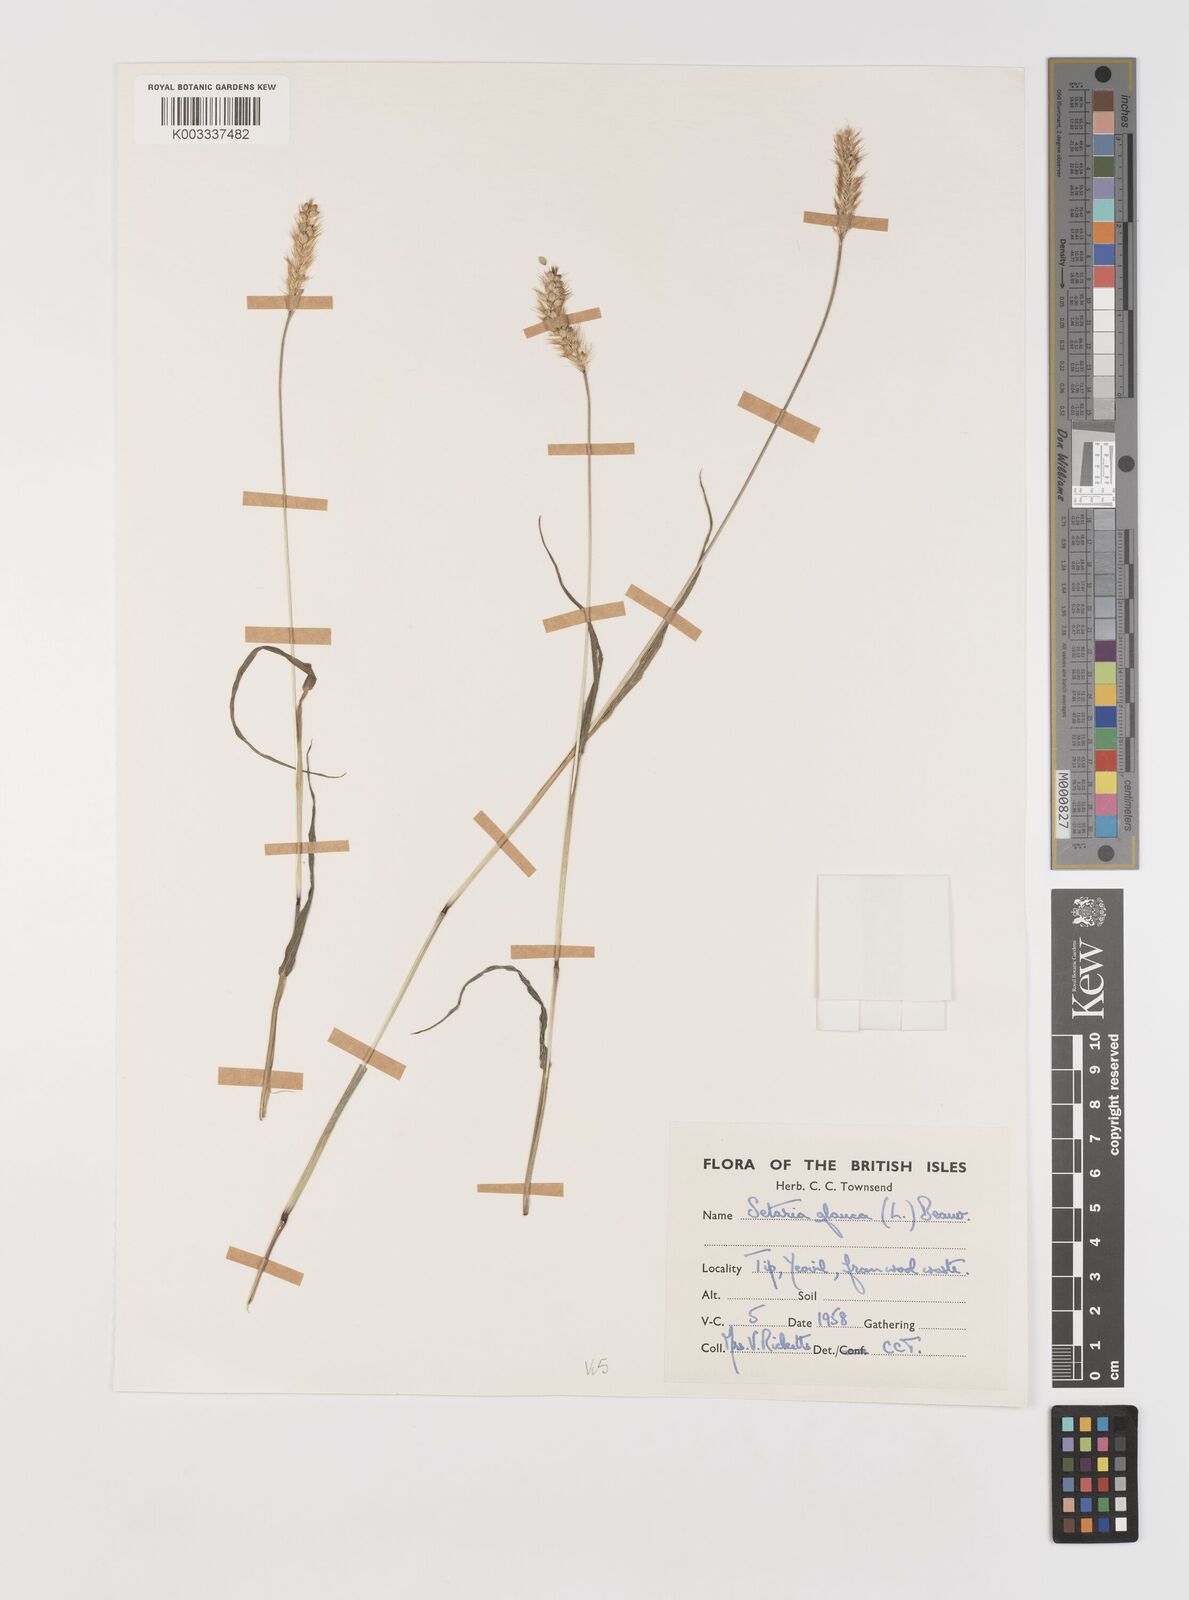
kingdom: Plantae
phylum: Tracheophyta
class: Liliopsida
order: Poales
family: Poaceae
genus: Setaria
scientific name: Setaria pumila
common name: Yellow bristle-grass
